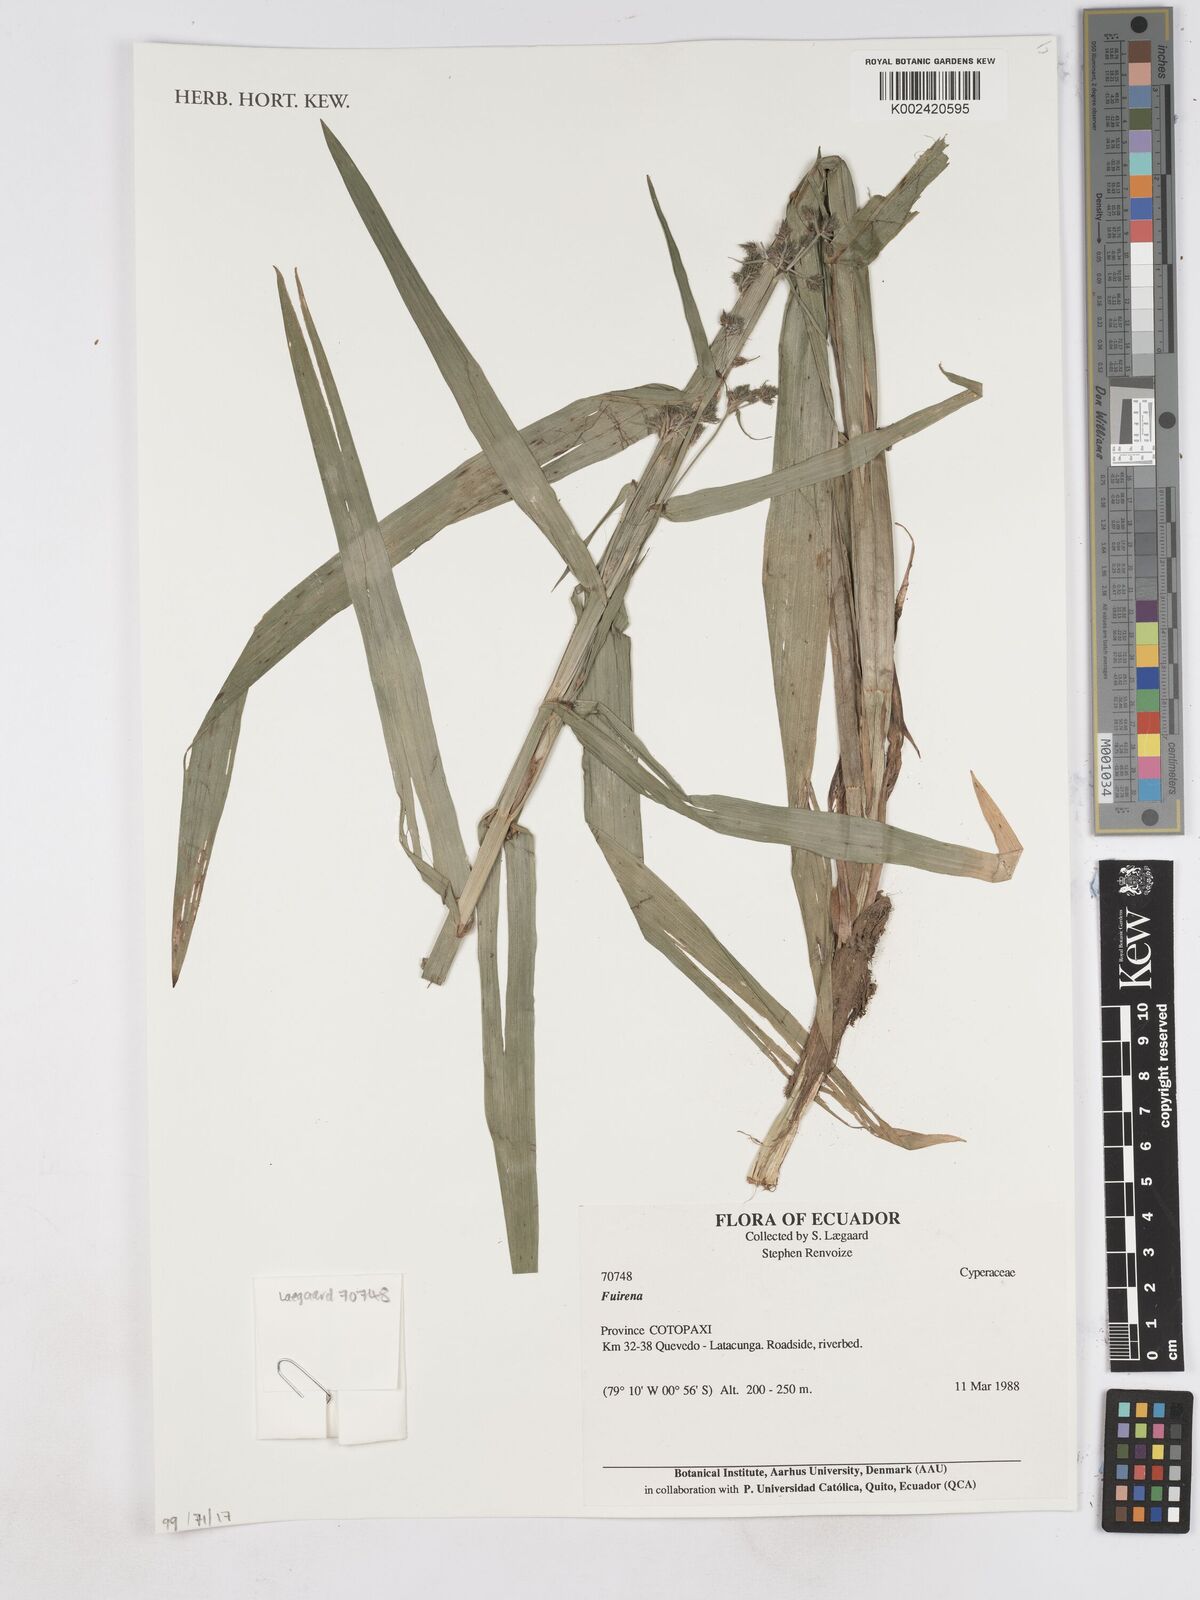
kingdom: Plantae
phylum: Tracheophyta
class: Liliopsida
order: Poales
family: Cyperaceae
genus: Fuirena
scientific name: Fuirena
